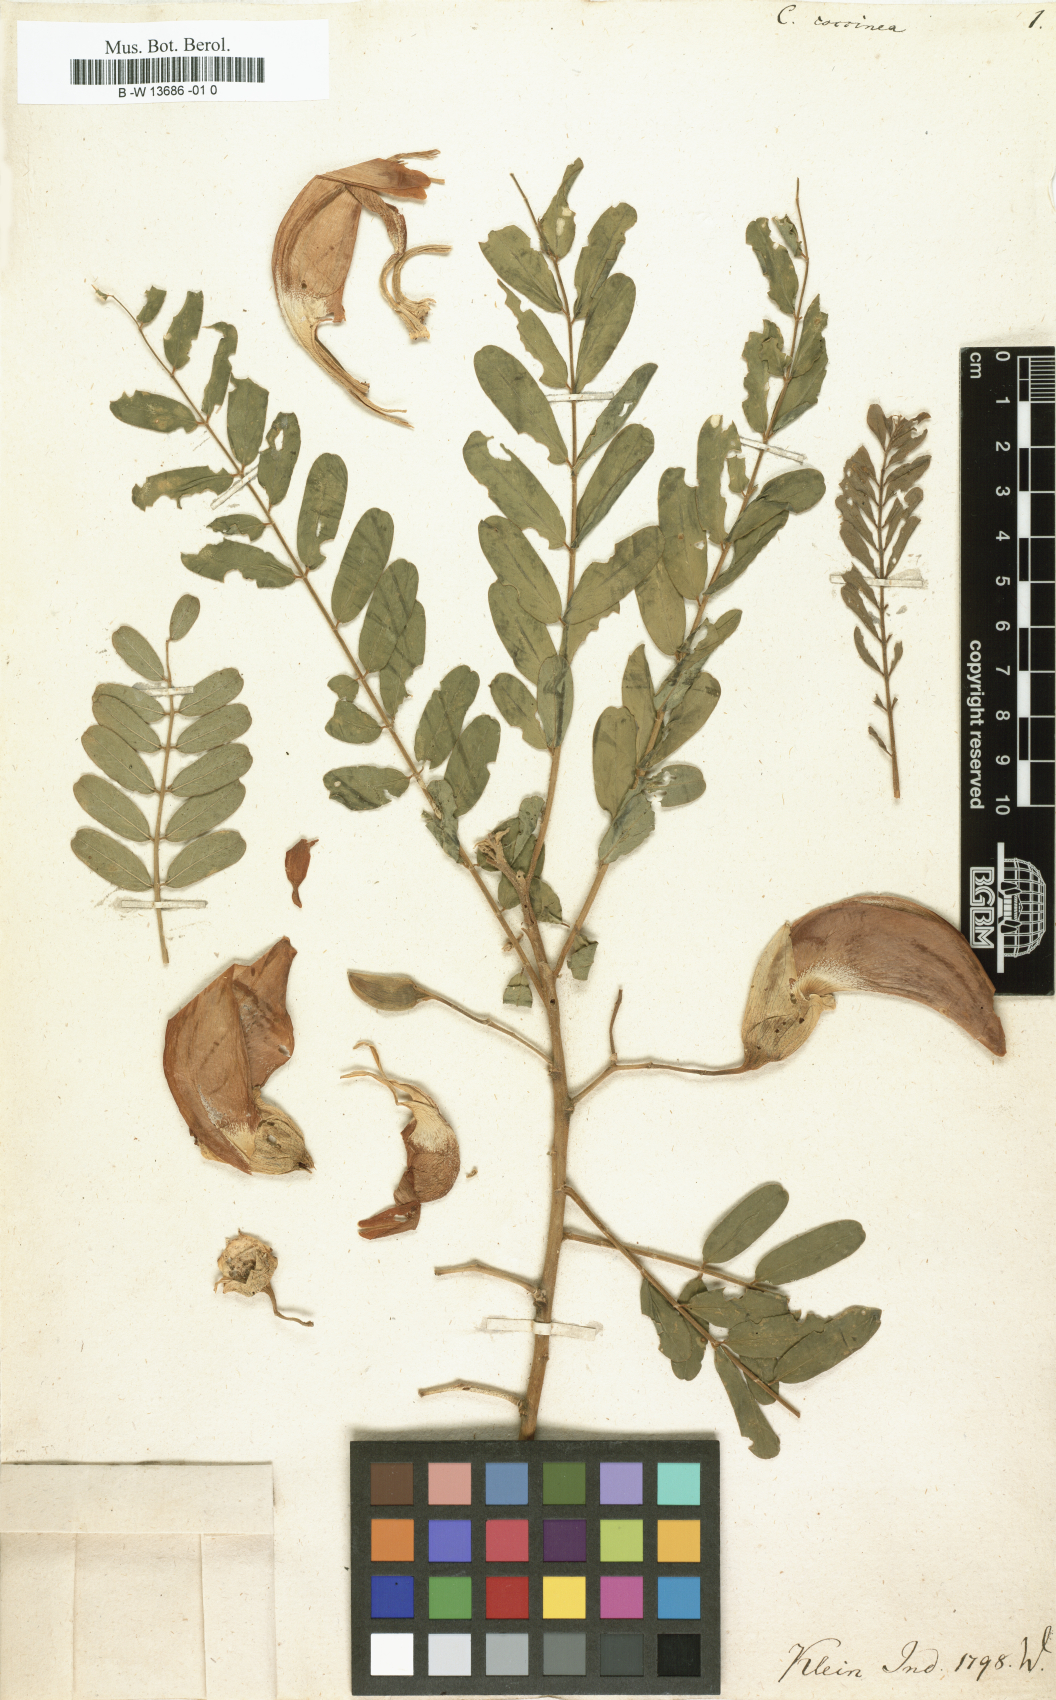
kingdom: Plantae
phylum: Tracheophyta
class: Magnoliopsida
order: Fabales
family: Fabaceae
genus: Sesbania
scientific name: Sesbania coccinea
